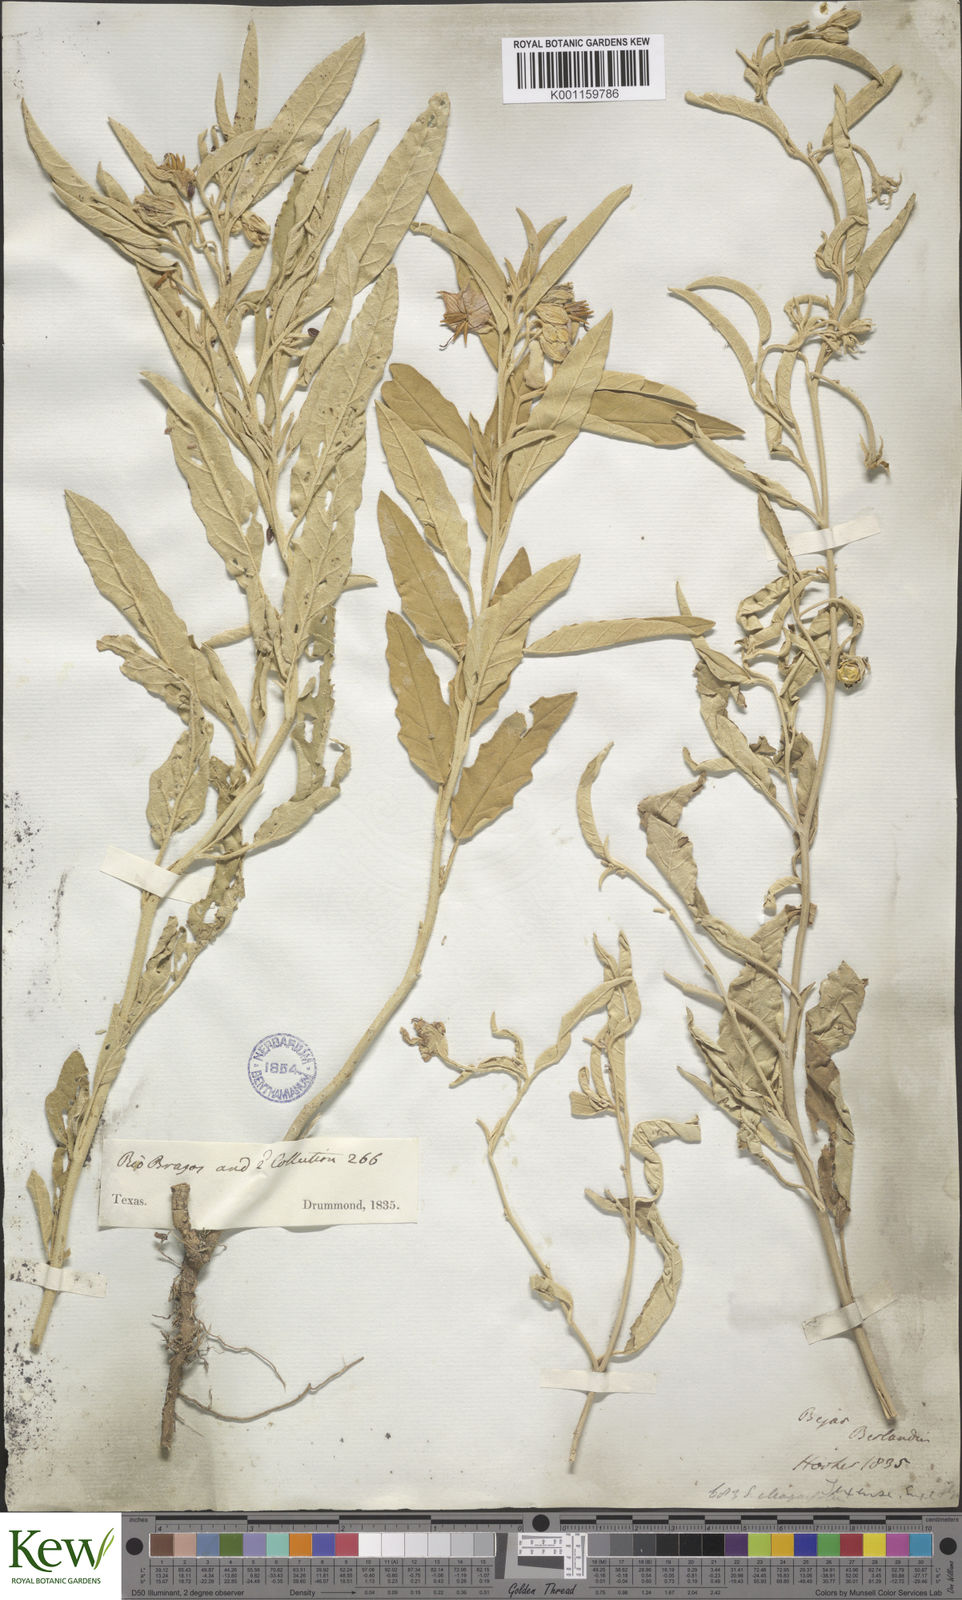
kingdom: Plantae
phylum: Tracheophyta
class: Magnoliopsida
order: Solanales
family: Solanaceae
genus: Solanum
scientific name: Solanum
